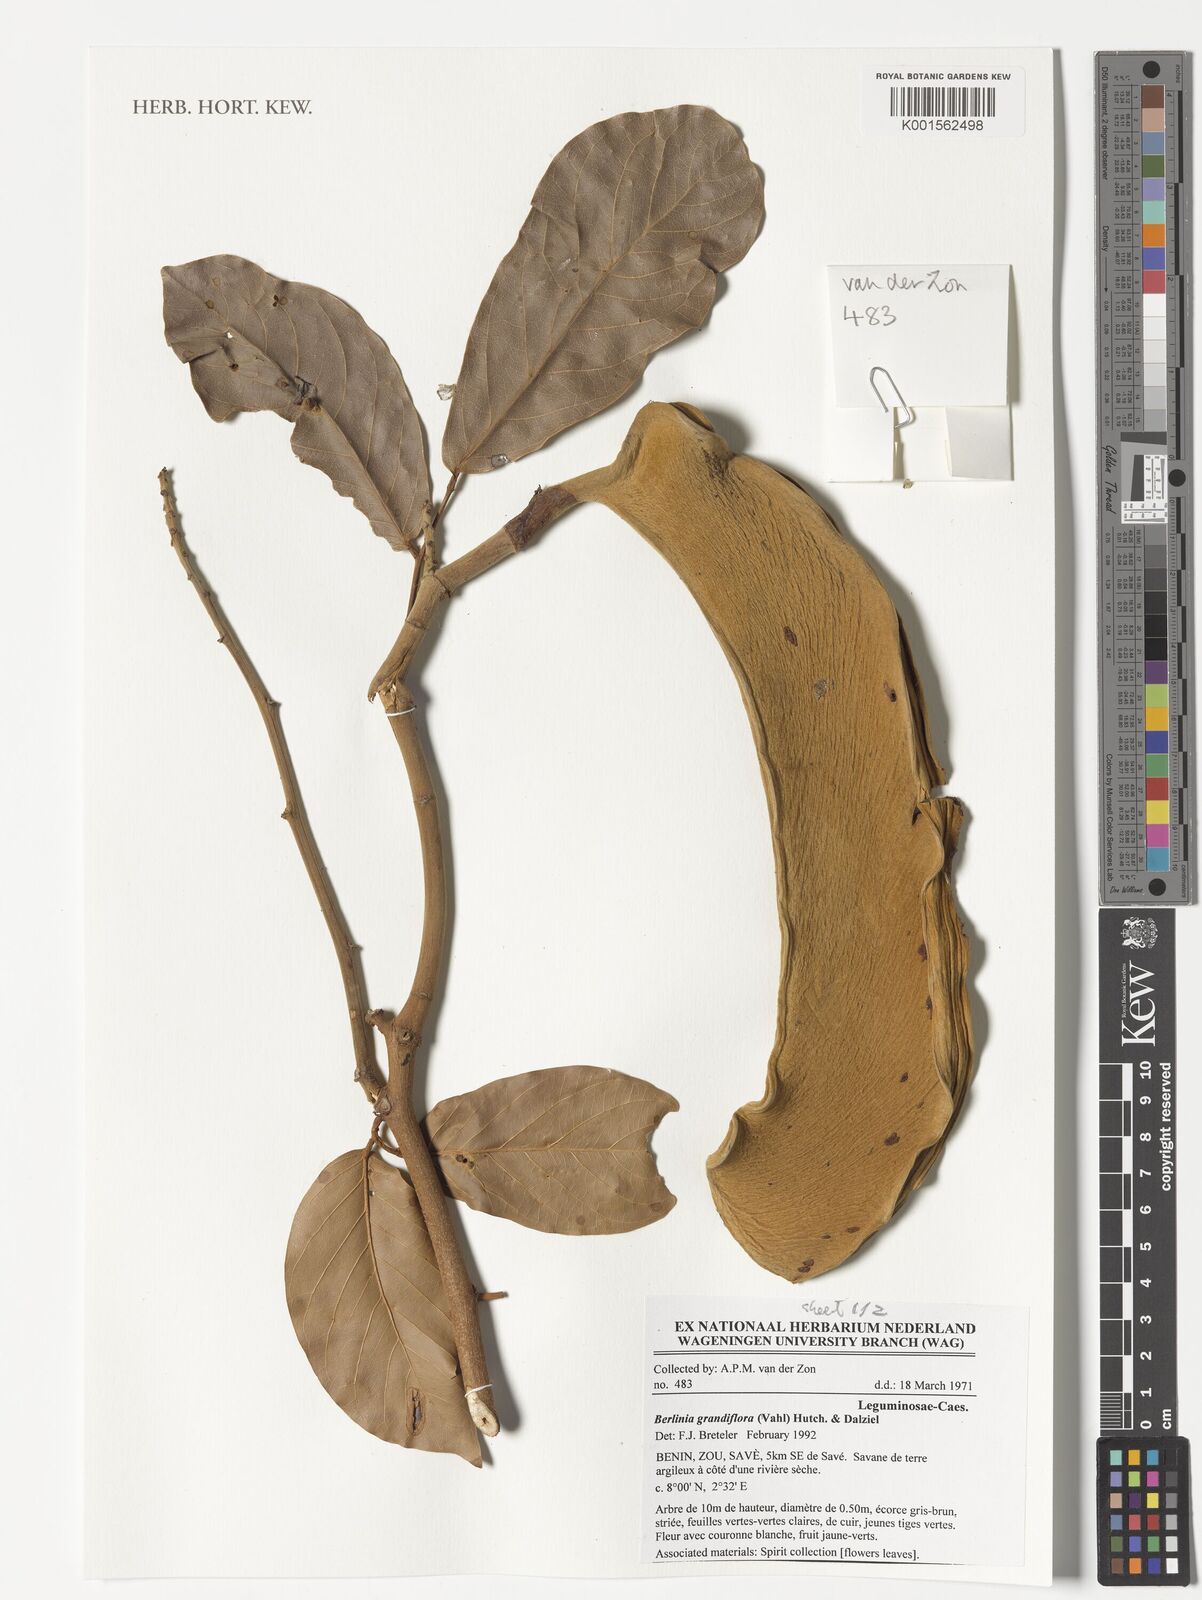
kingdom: Plantae
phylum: Tracheophyta
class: Magnoliopsida
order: Fabales
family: Fabaceae
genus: Berlinia
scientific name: Berlinia grandiflora
